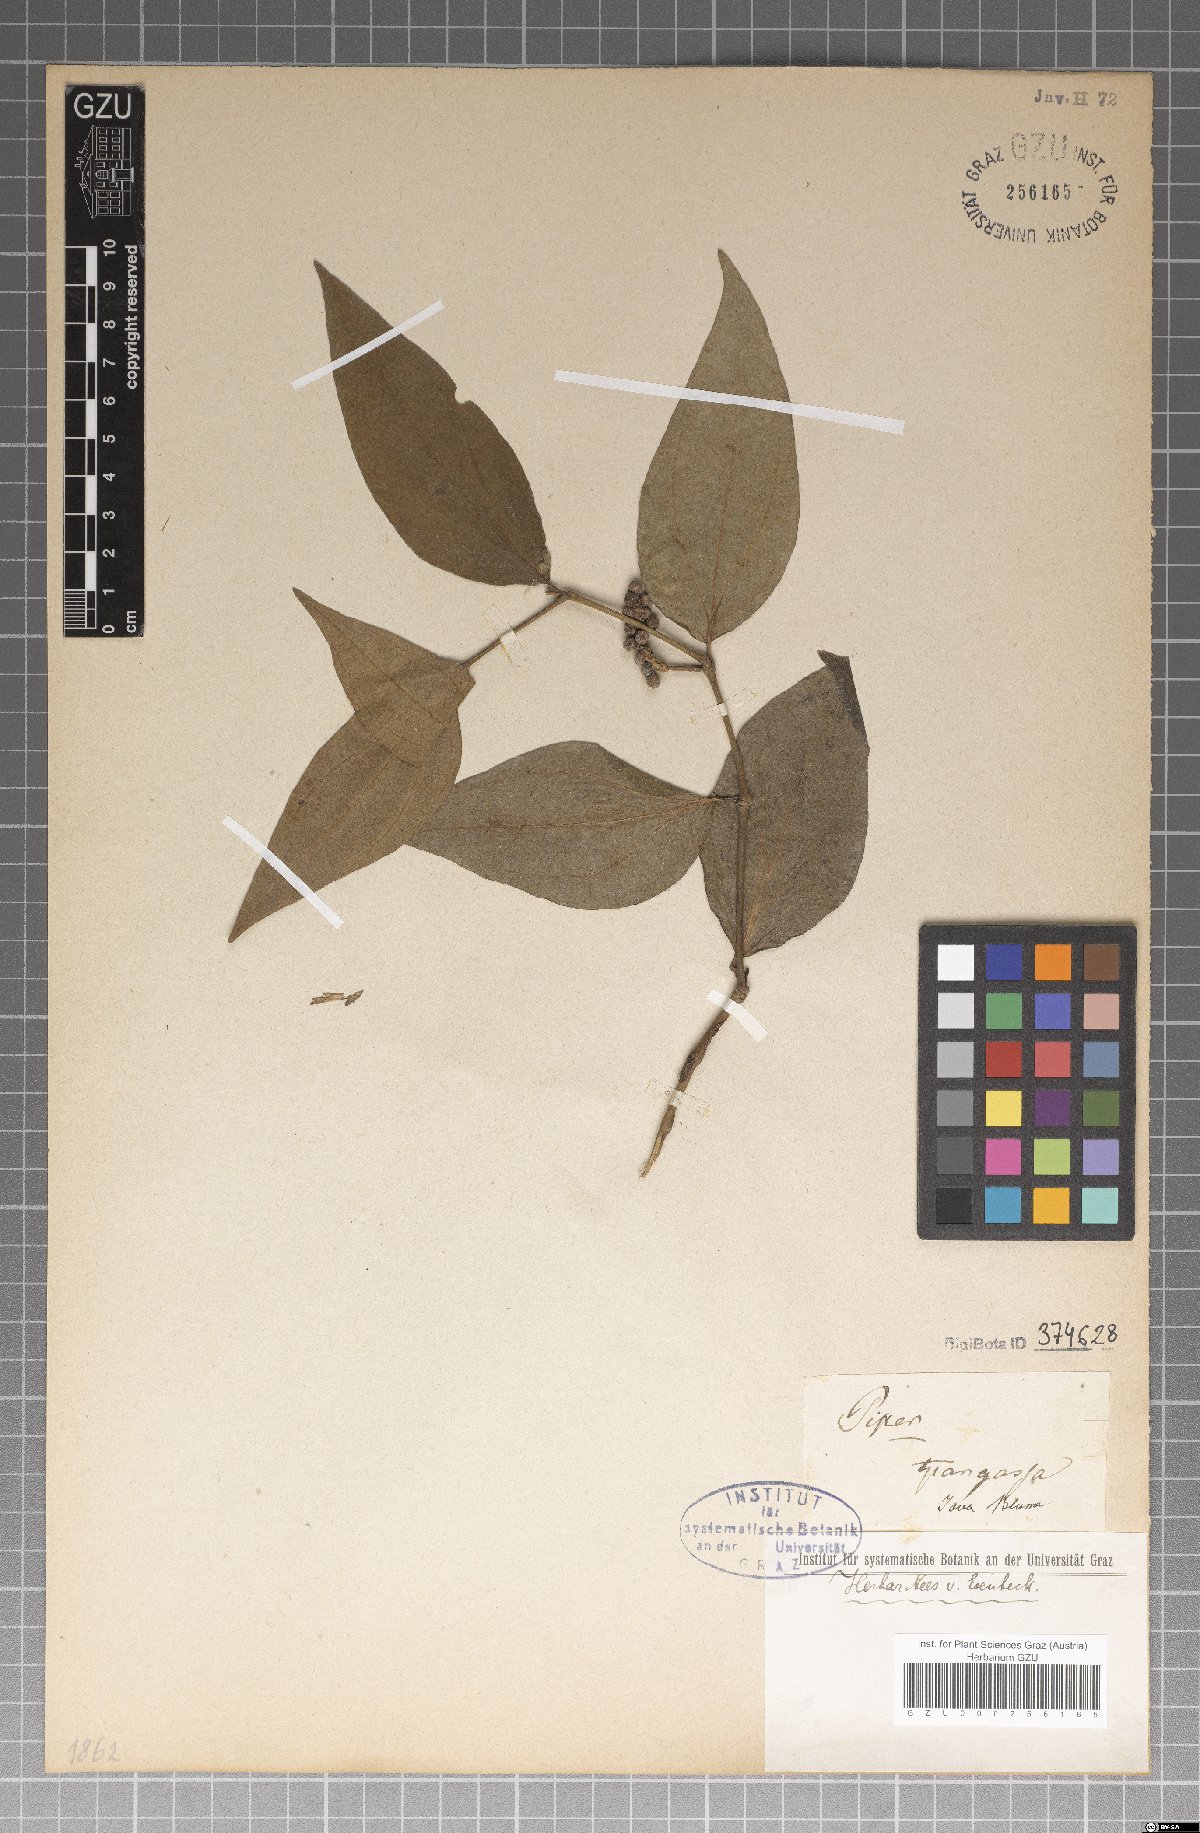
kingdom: Plantae
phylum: Tracheophyta
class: Magnoliopsida
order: Piperales
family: Piperaceae
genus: Piper
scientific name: Piper
